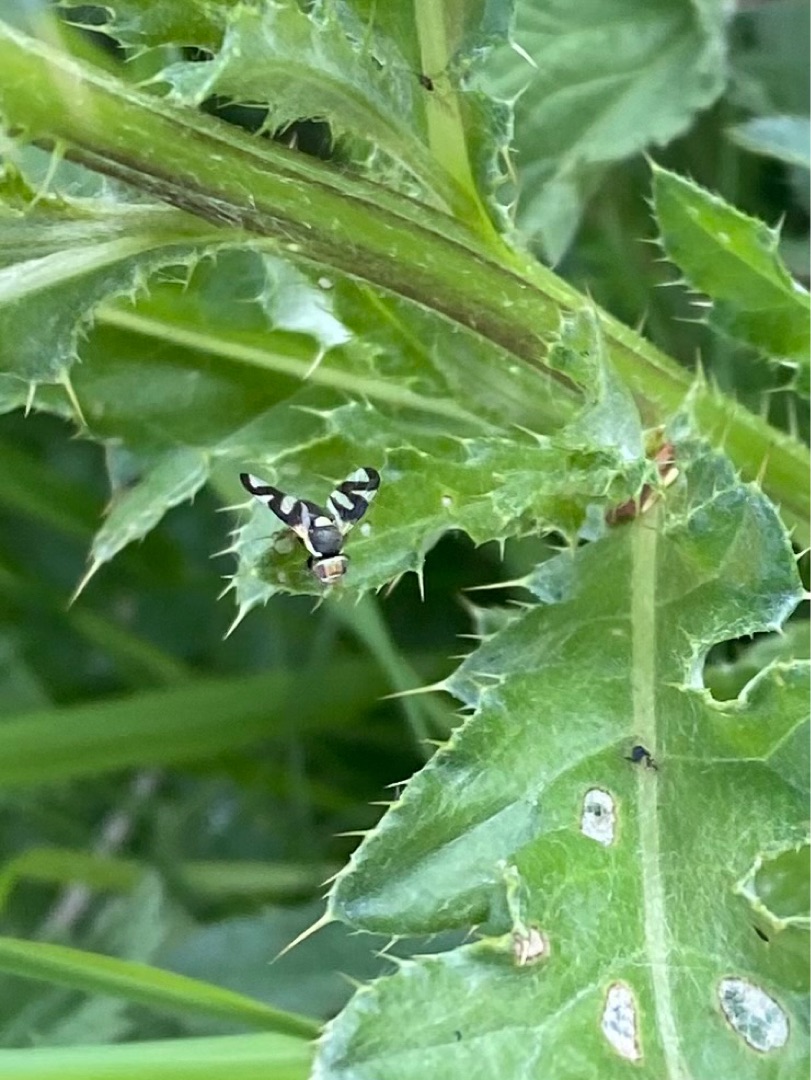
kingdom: Animalia
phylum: Arthropoda
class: Insecta
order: Diptera
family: Tephritidae
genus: Urophora
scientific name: Urophora cardui
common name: Tidselbåndflue
